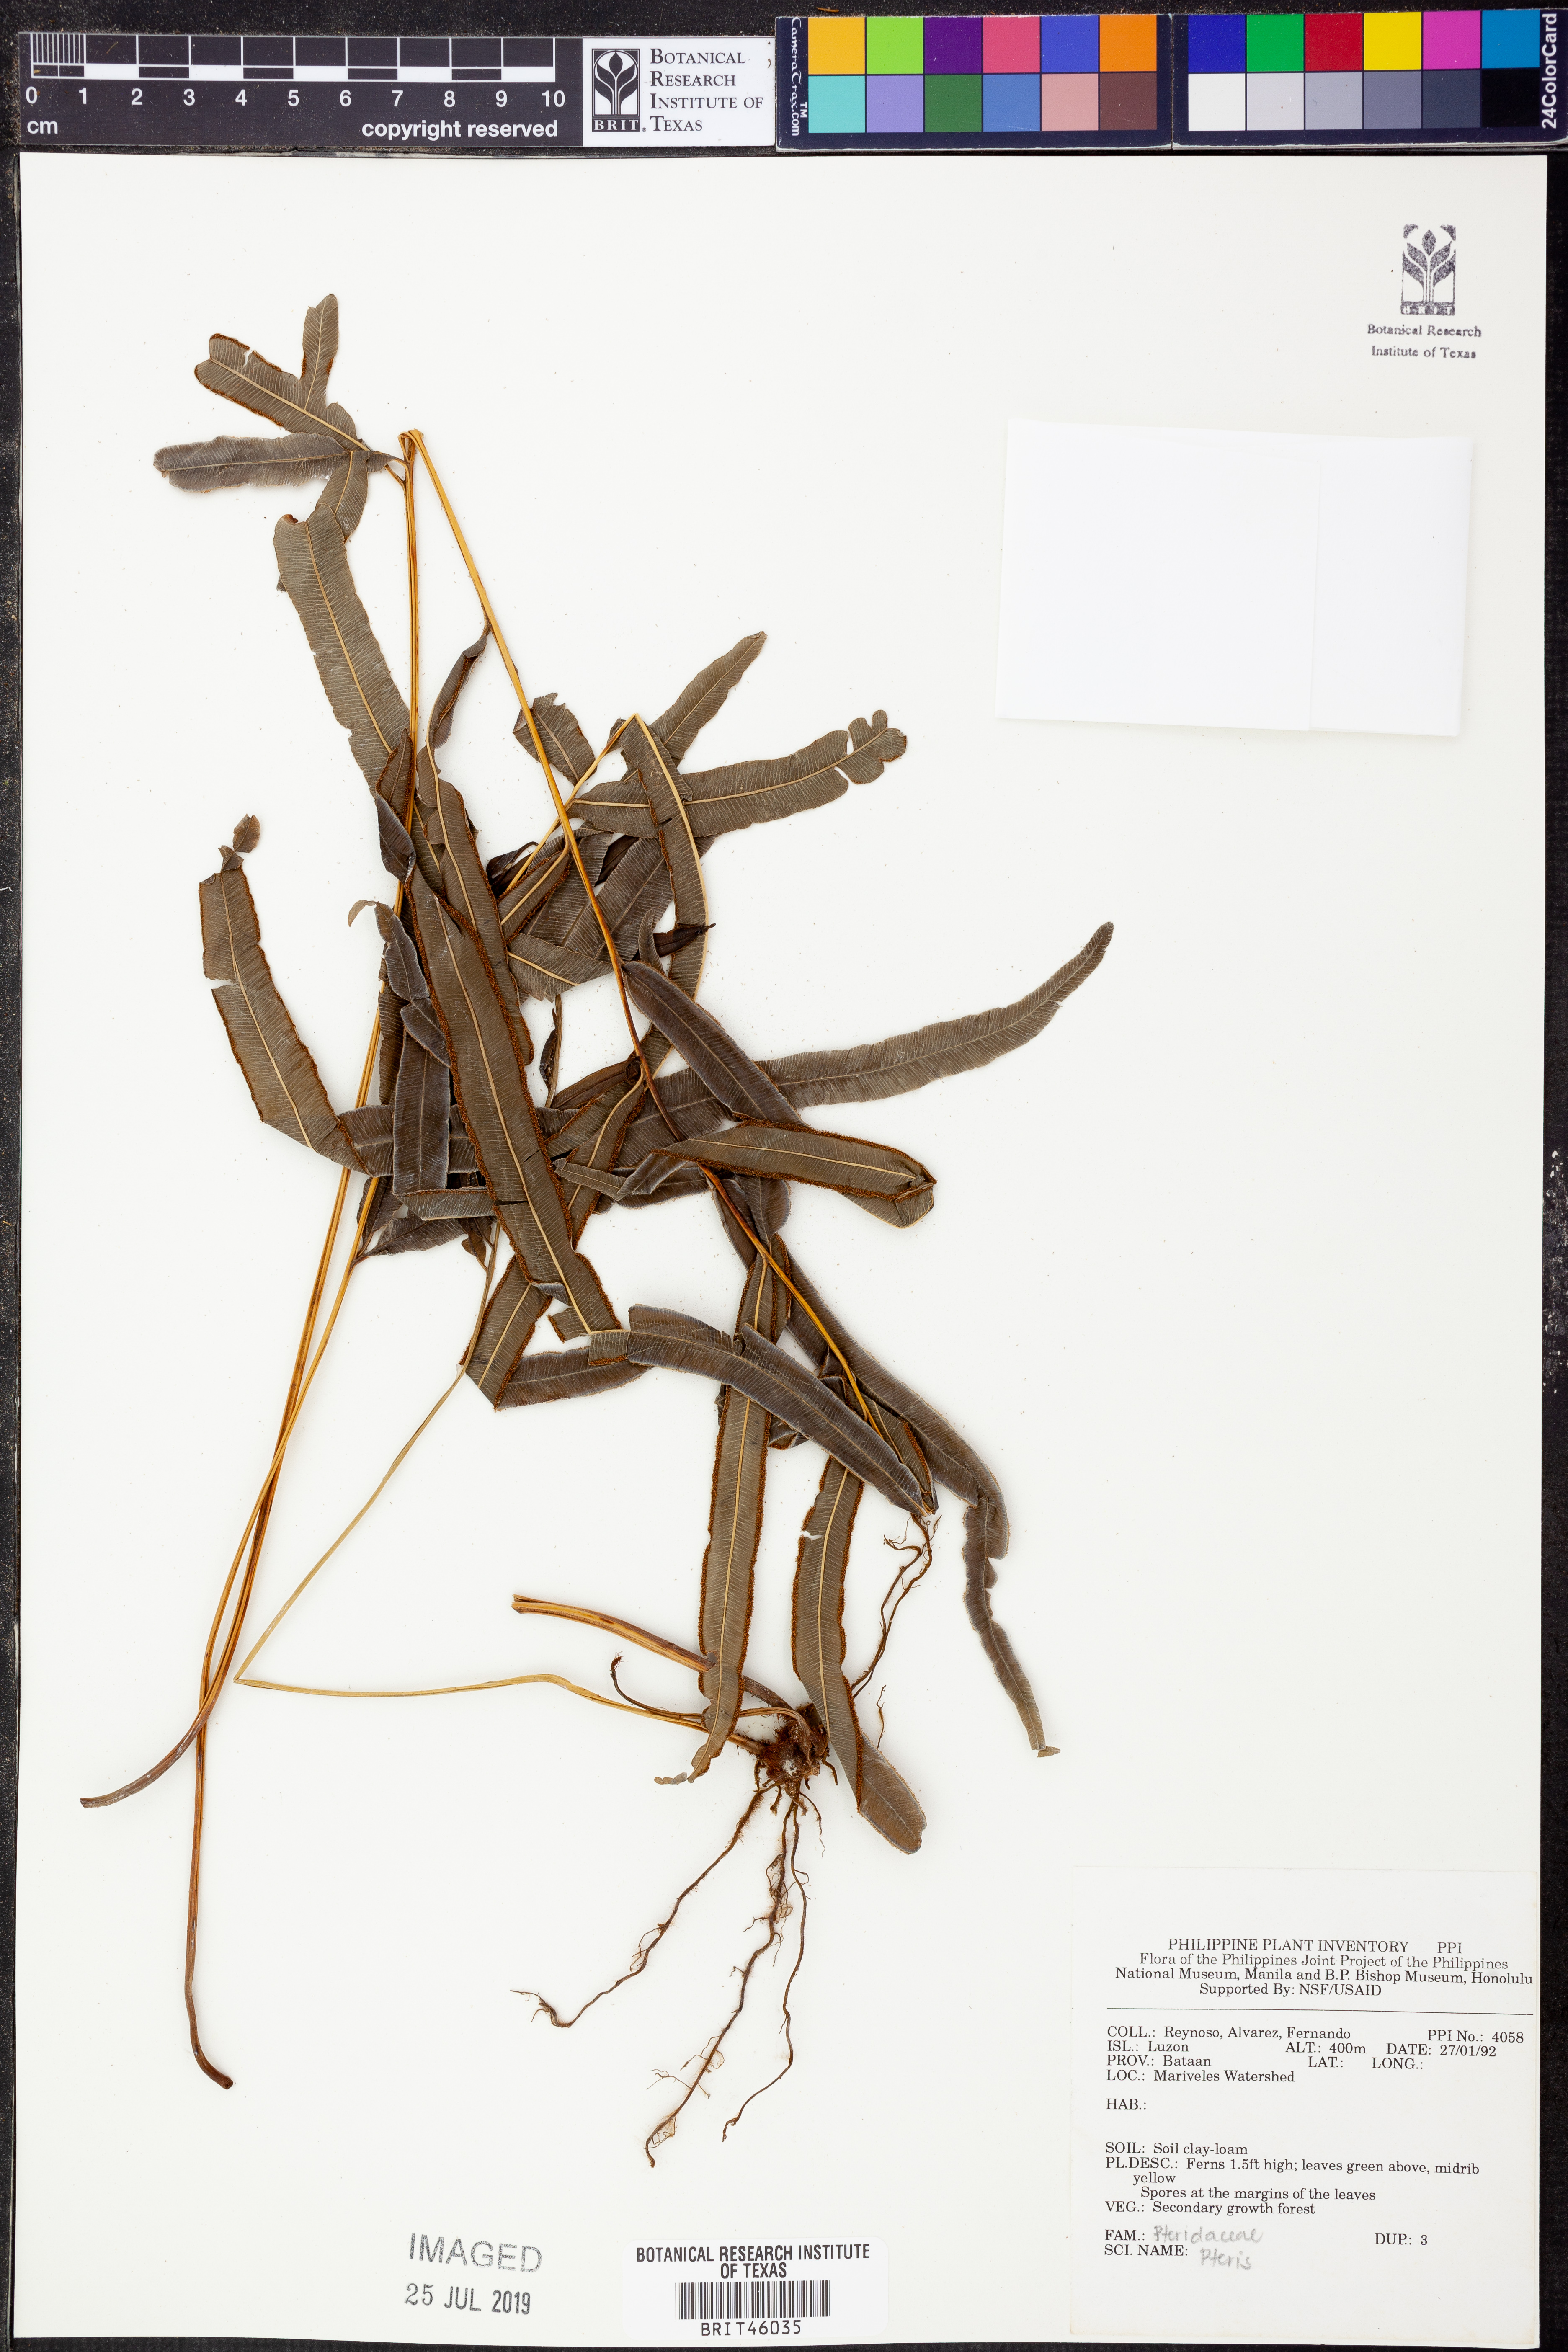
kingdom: Plantae
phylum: Tracheophyta
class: Polypodiopsida
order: Polypodiales
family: Pteridaceae
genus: Pteris
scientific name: Pteris
